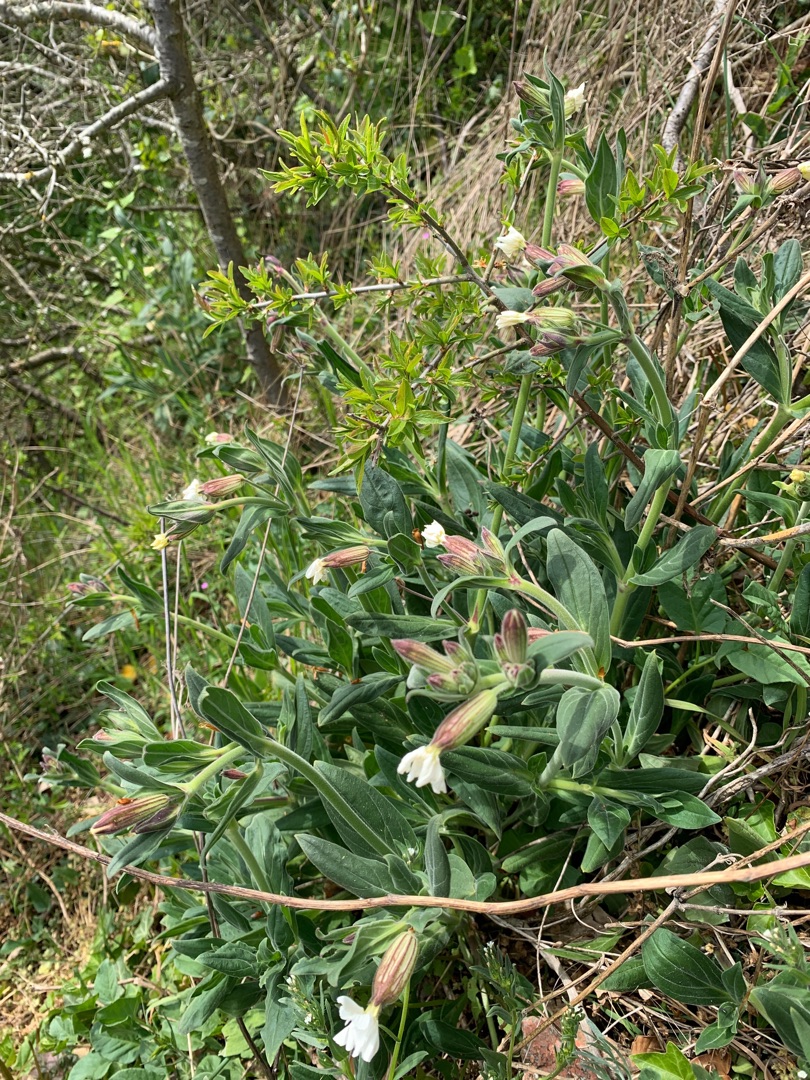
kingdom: Plantae
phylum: Tracheophyta
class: Magnoliopsida
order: Caryophyllales
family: Caryophyllaceae
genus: Silene
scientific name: Silene latifolia
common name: Aftenpragtstjerne
